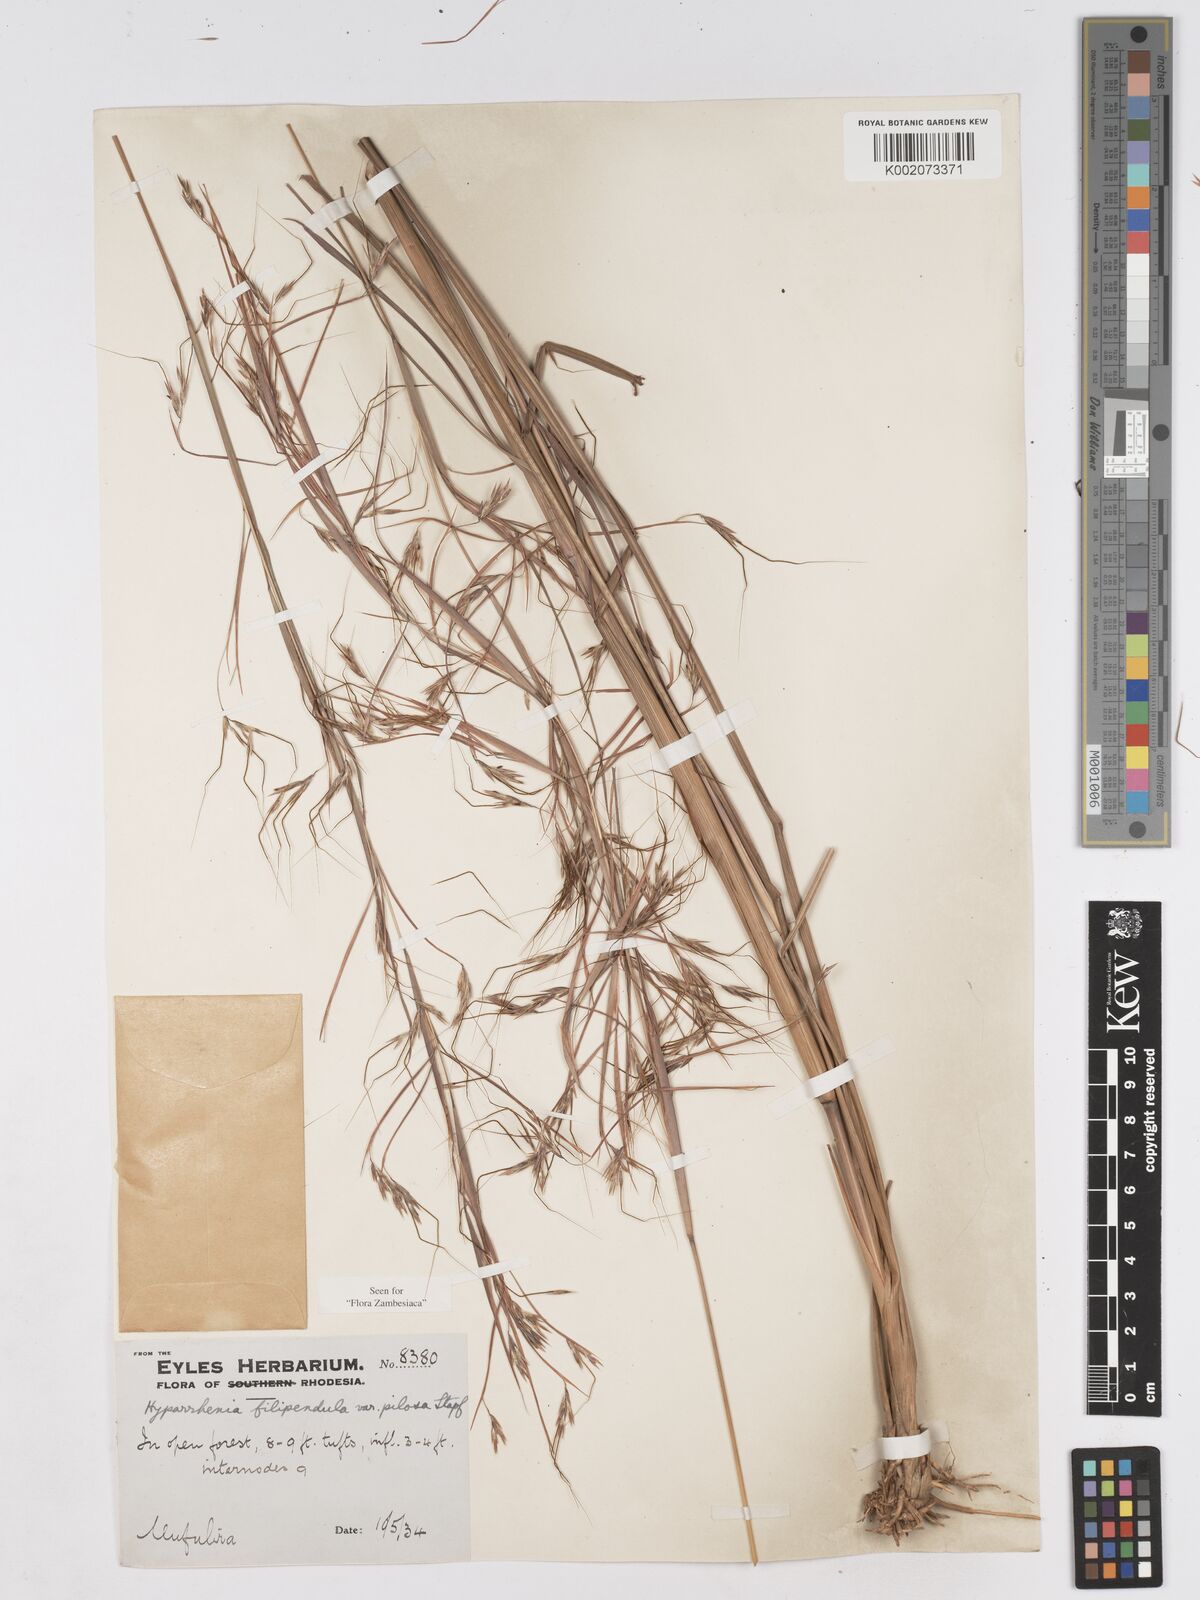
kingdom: Plantae
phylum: Tracheophyta
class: Liliopsida
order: Poales
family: Poaceae
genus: Hyparrhenia
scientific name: Hyparrhenia filipendula
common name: Tambookie grass
